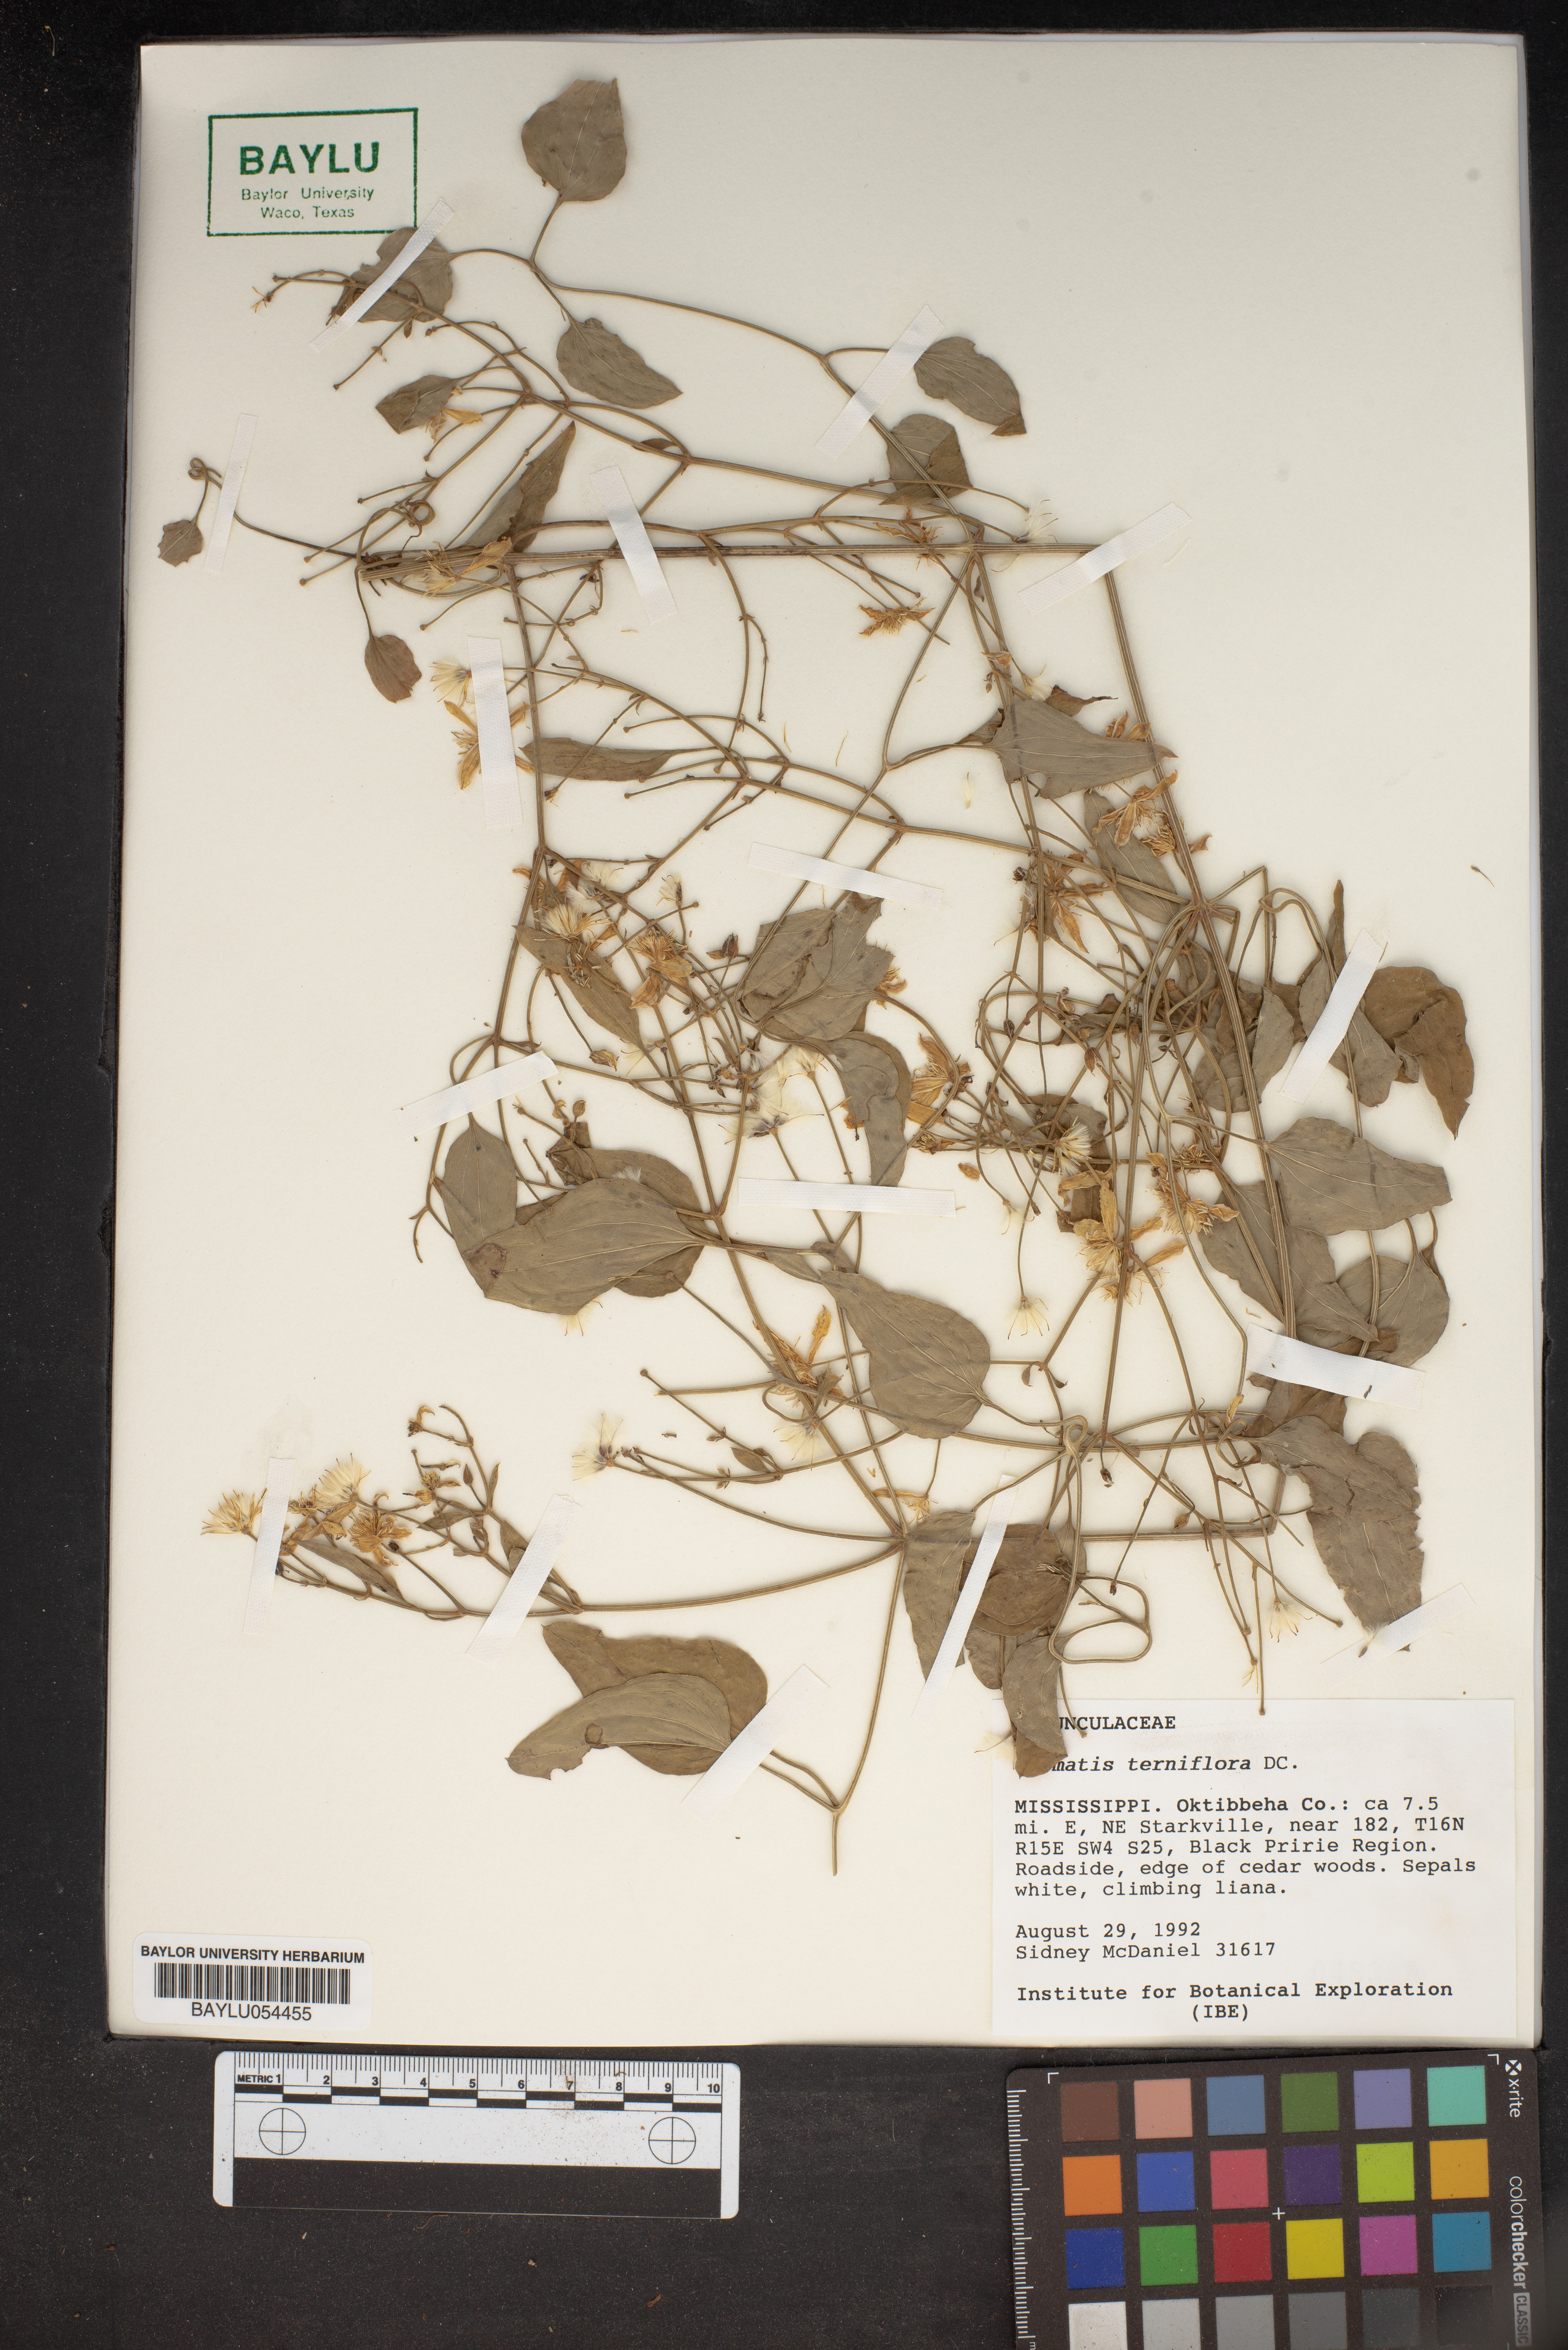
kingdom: Plantae
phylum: Tracheophyta
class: Magnoliopsida
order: Ranunculales
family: Ranunculaceae
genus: Clematis
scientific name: Clematis terniflora
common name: Sweet autumn clematis
